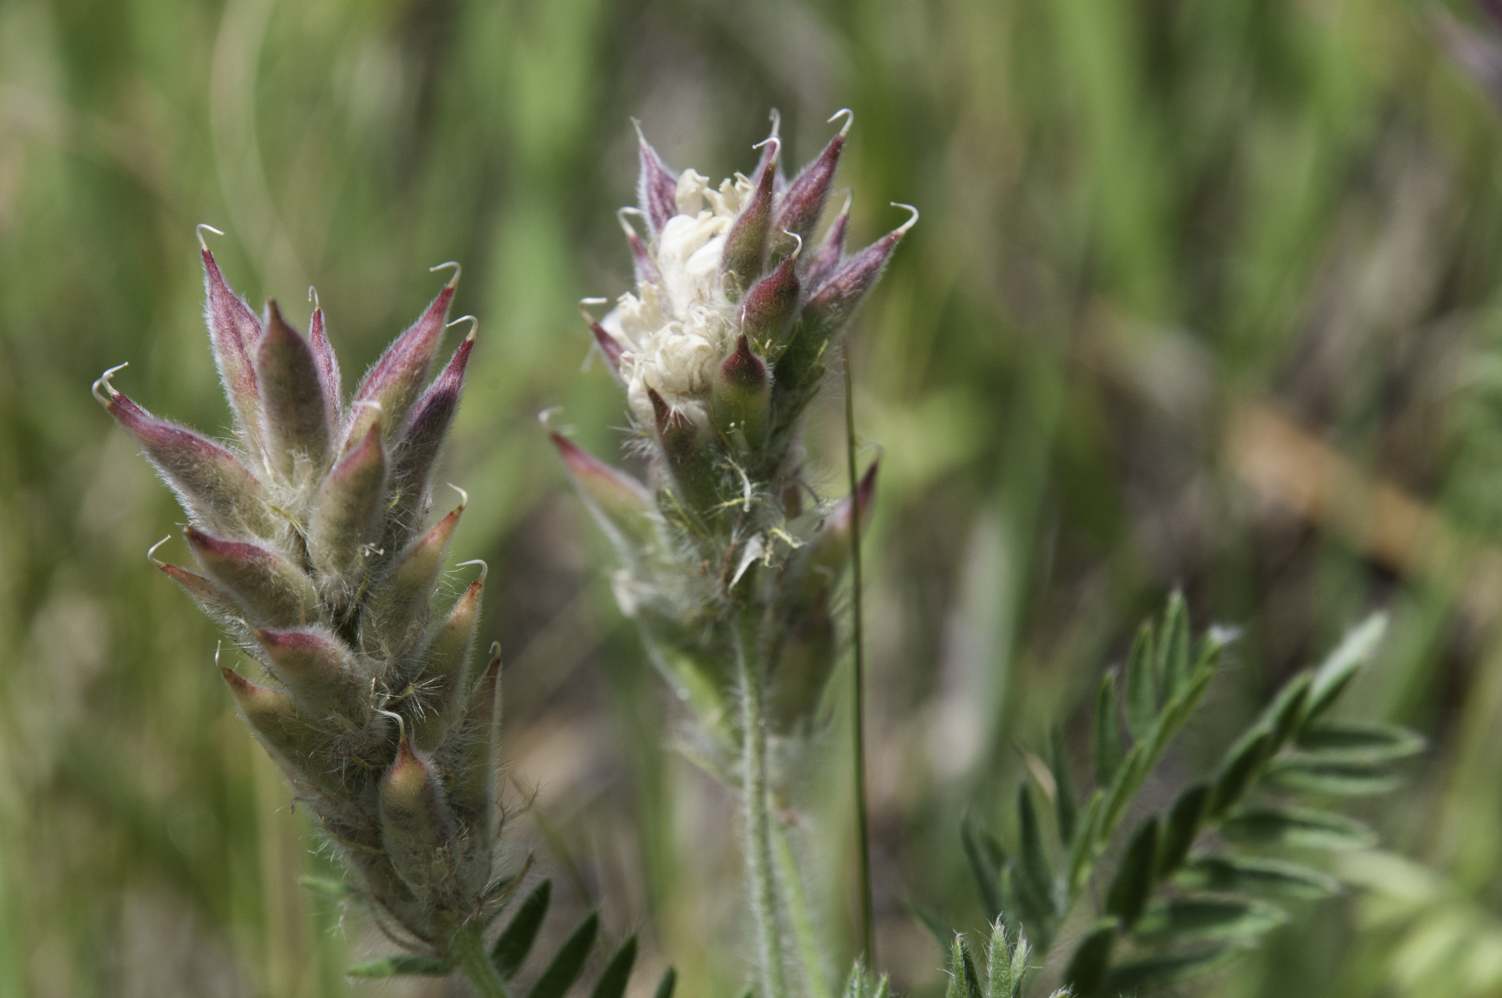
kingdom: Plantae
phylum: Tracheophyta
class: Magnoliopsida
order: Fabales
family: Fabaceae
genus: Oxytropis
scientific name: Oxytropis pilosa
